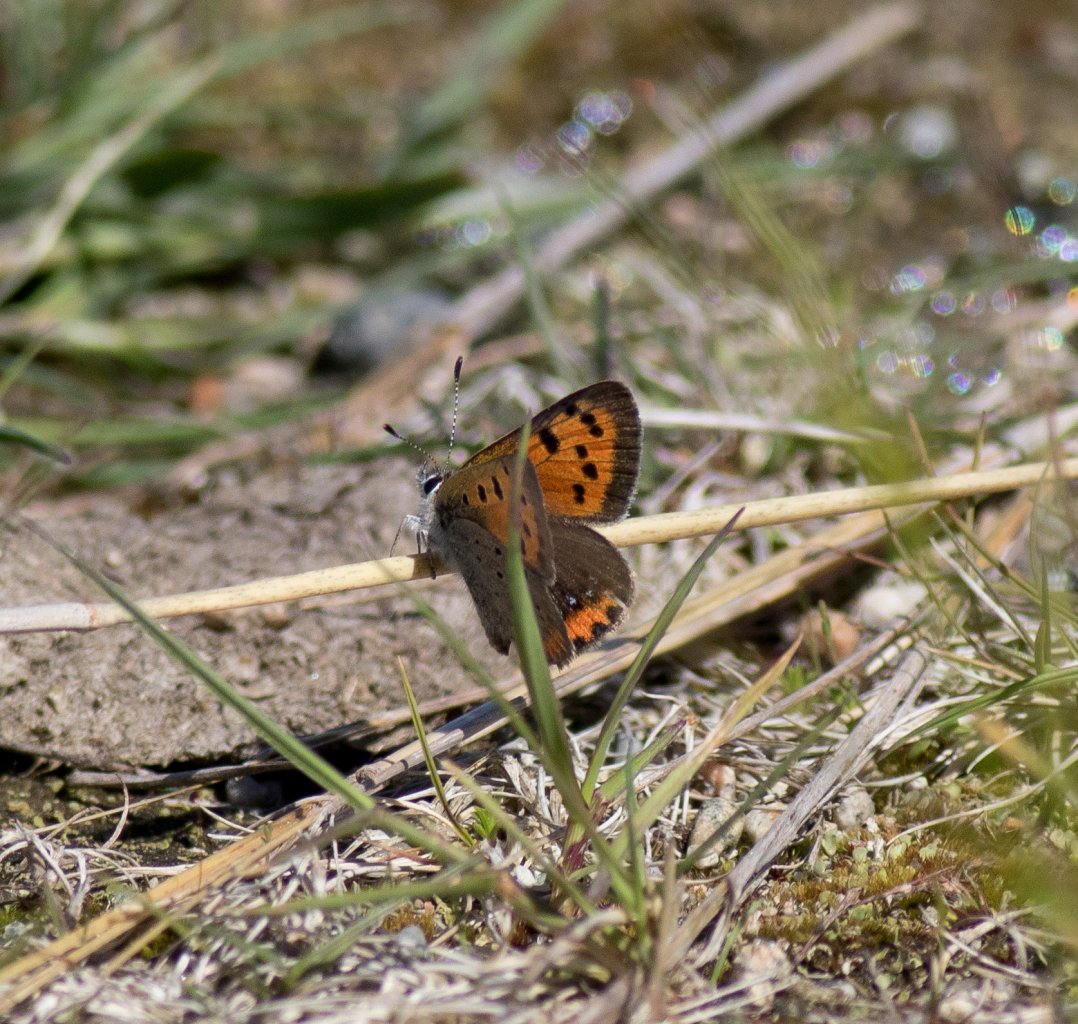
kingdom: Animalia
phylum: Arthropoda
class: Insecta
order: Lepidoptera
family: Lycaenidae
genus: Lycaena
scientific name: Lycaena phlaeas
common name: American Copper
